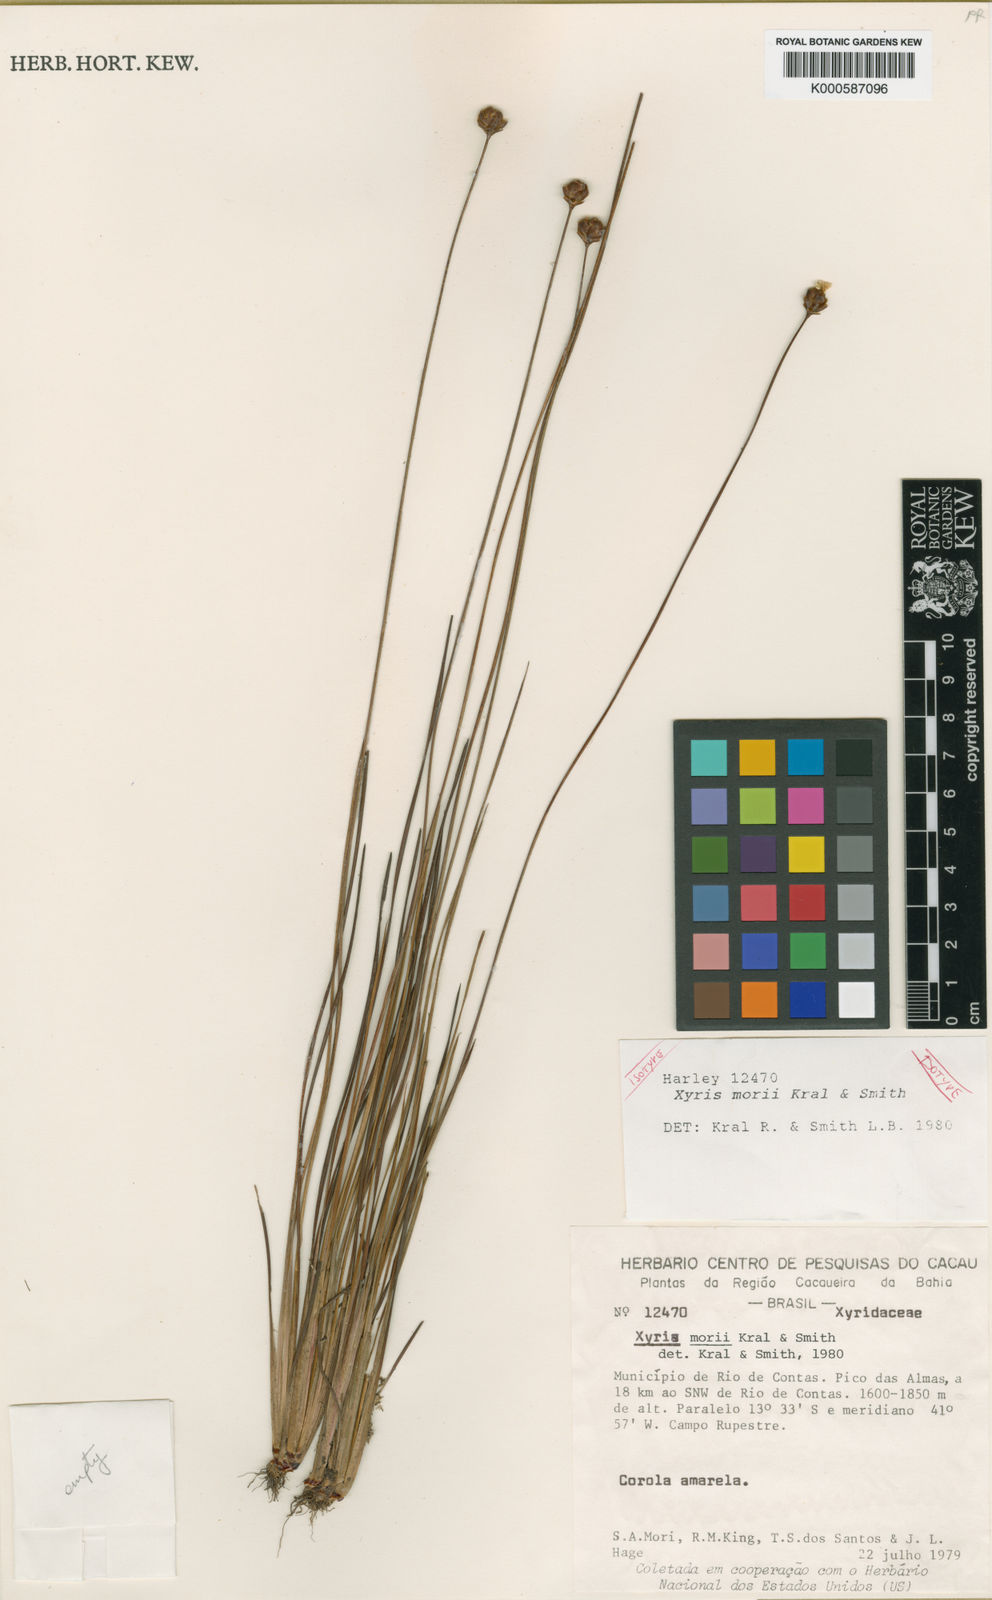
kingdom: Plantae
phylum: Tracheophyta
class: Liliopsida
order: Poales
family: Xyridaceae
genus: Xyris
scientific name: Xyris morii
